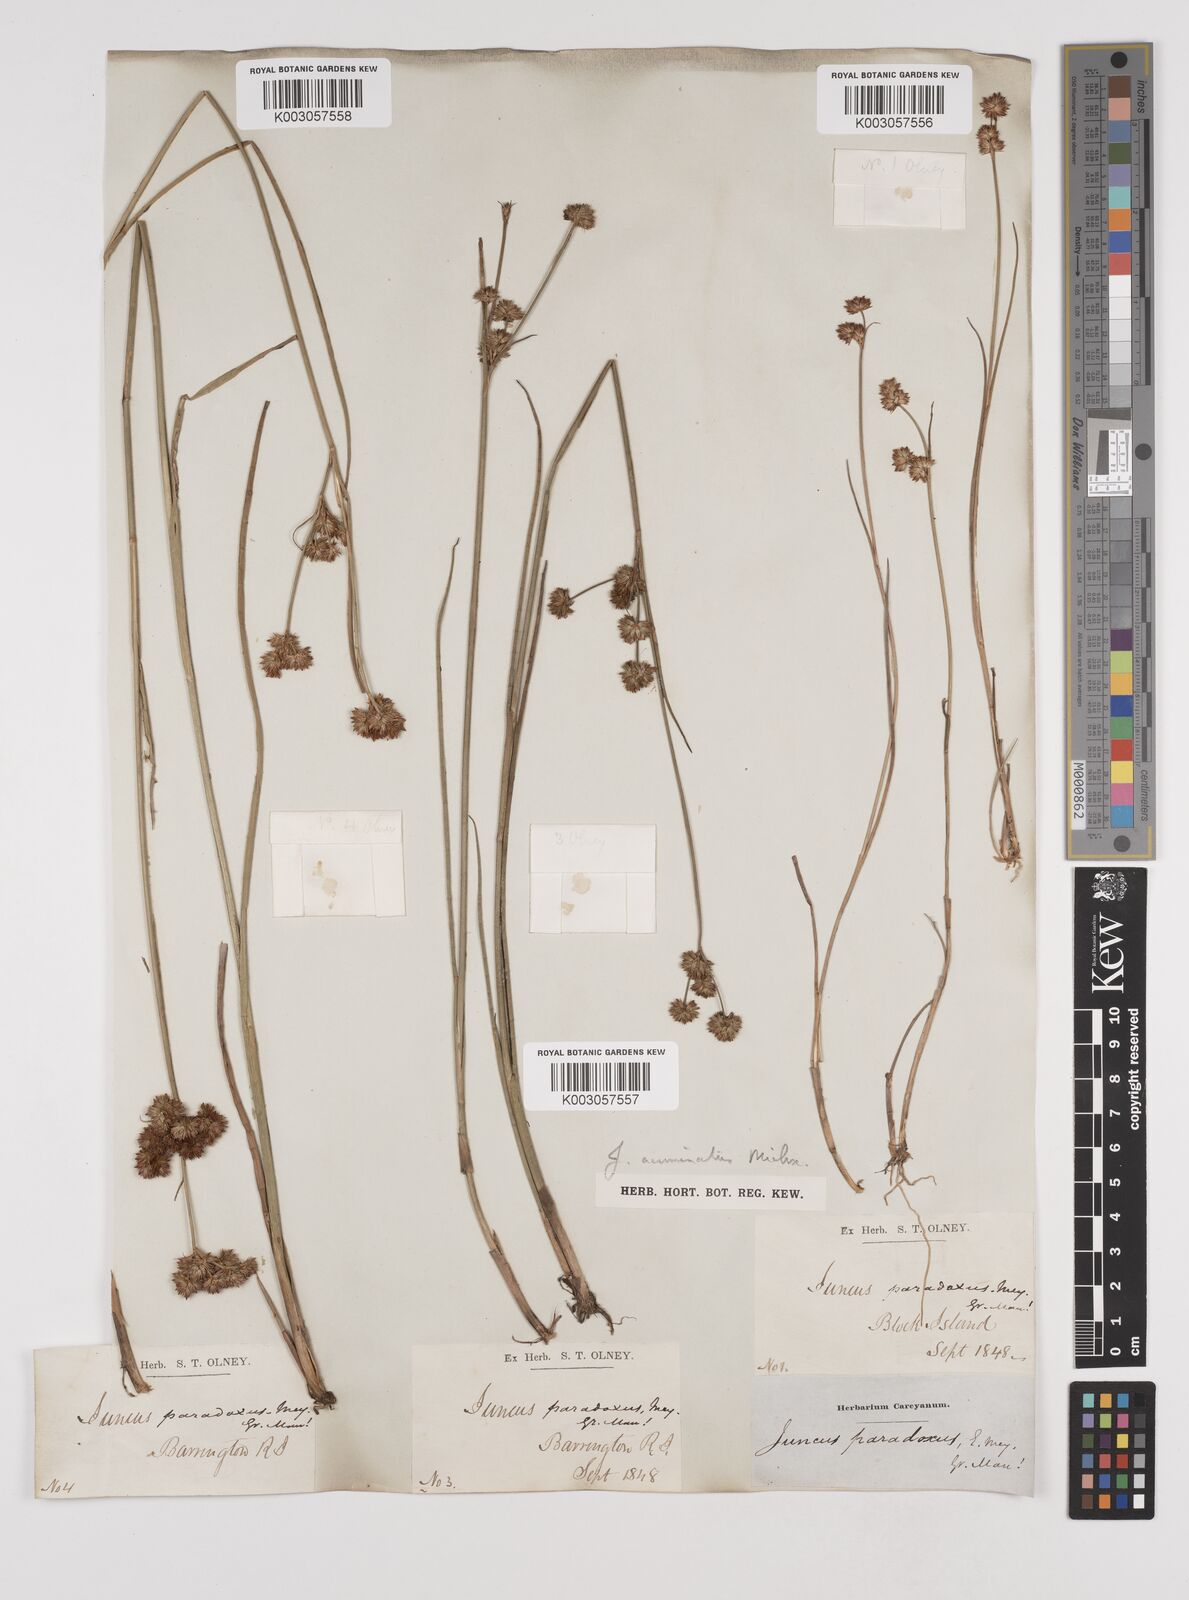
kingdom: Plantae
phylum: Tracheophyta
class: Liliopsida
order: Poales
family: Juncaceae
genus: Juncus
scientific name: Juncus acuminatus
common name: Knotty-leaved rush
